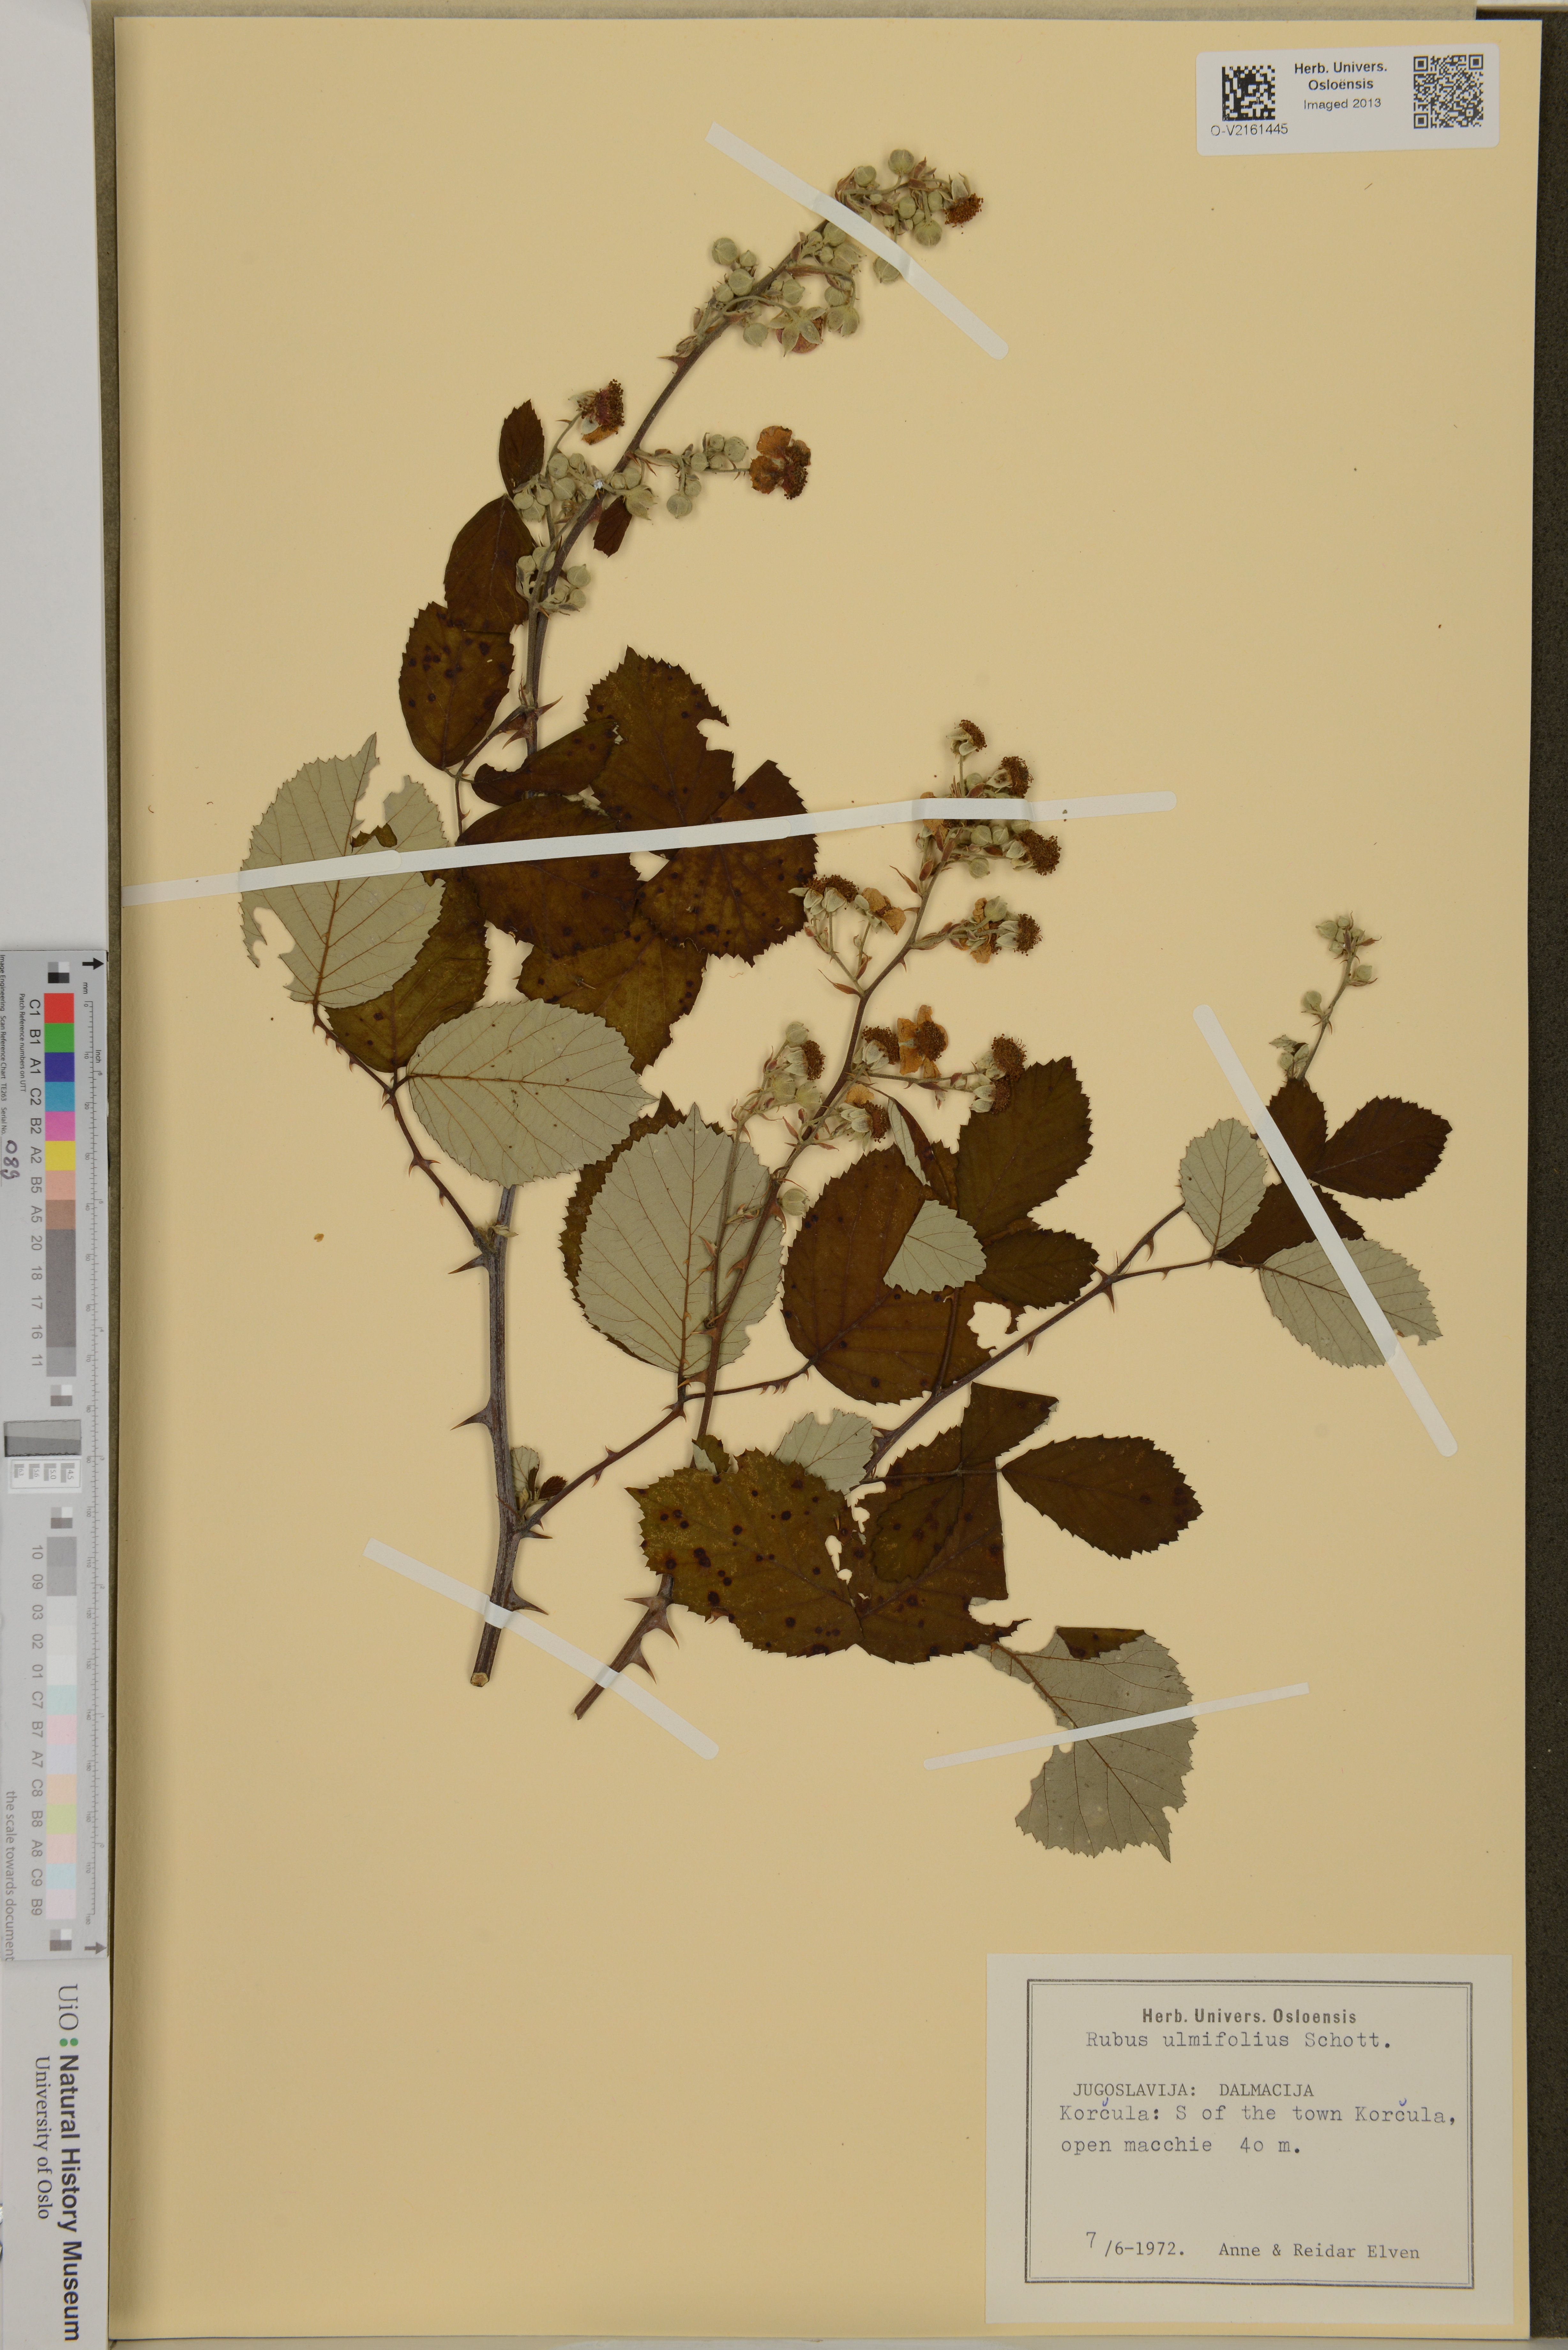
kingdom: Plantae
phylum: Tracheophyta
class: Magnoliopsida
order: Rosales
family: Rosaceae
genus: Rubus
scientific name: Rubus ulmifolius
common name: Elmleaf blackberry
